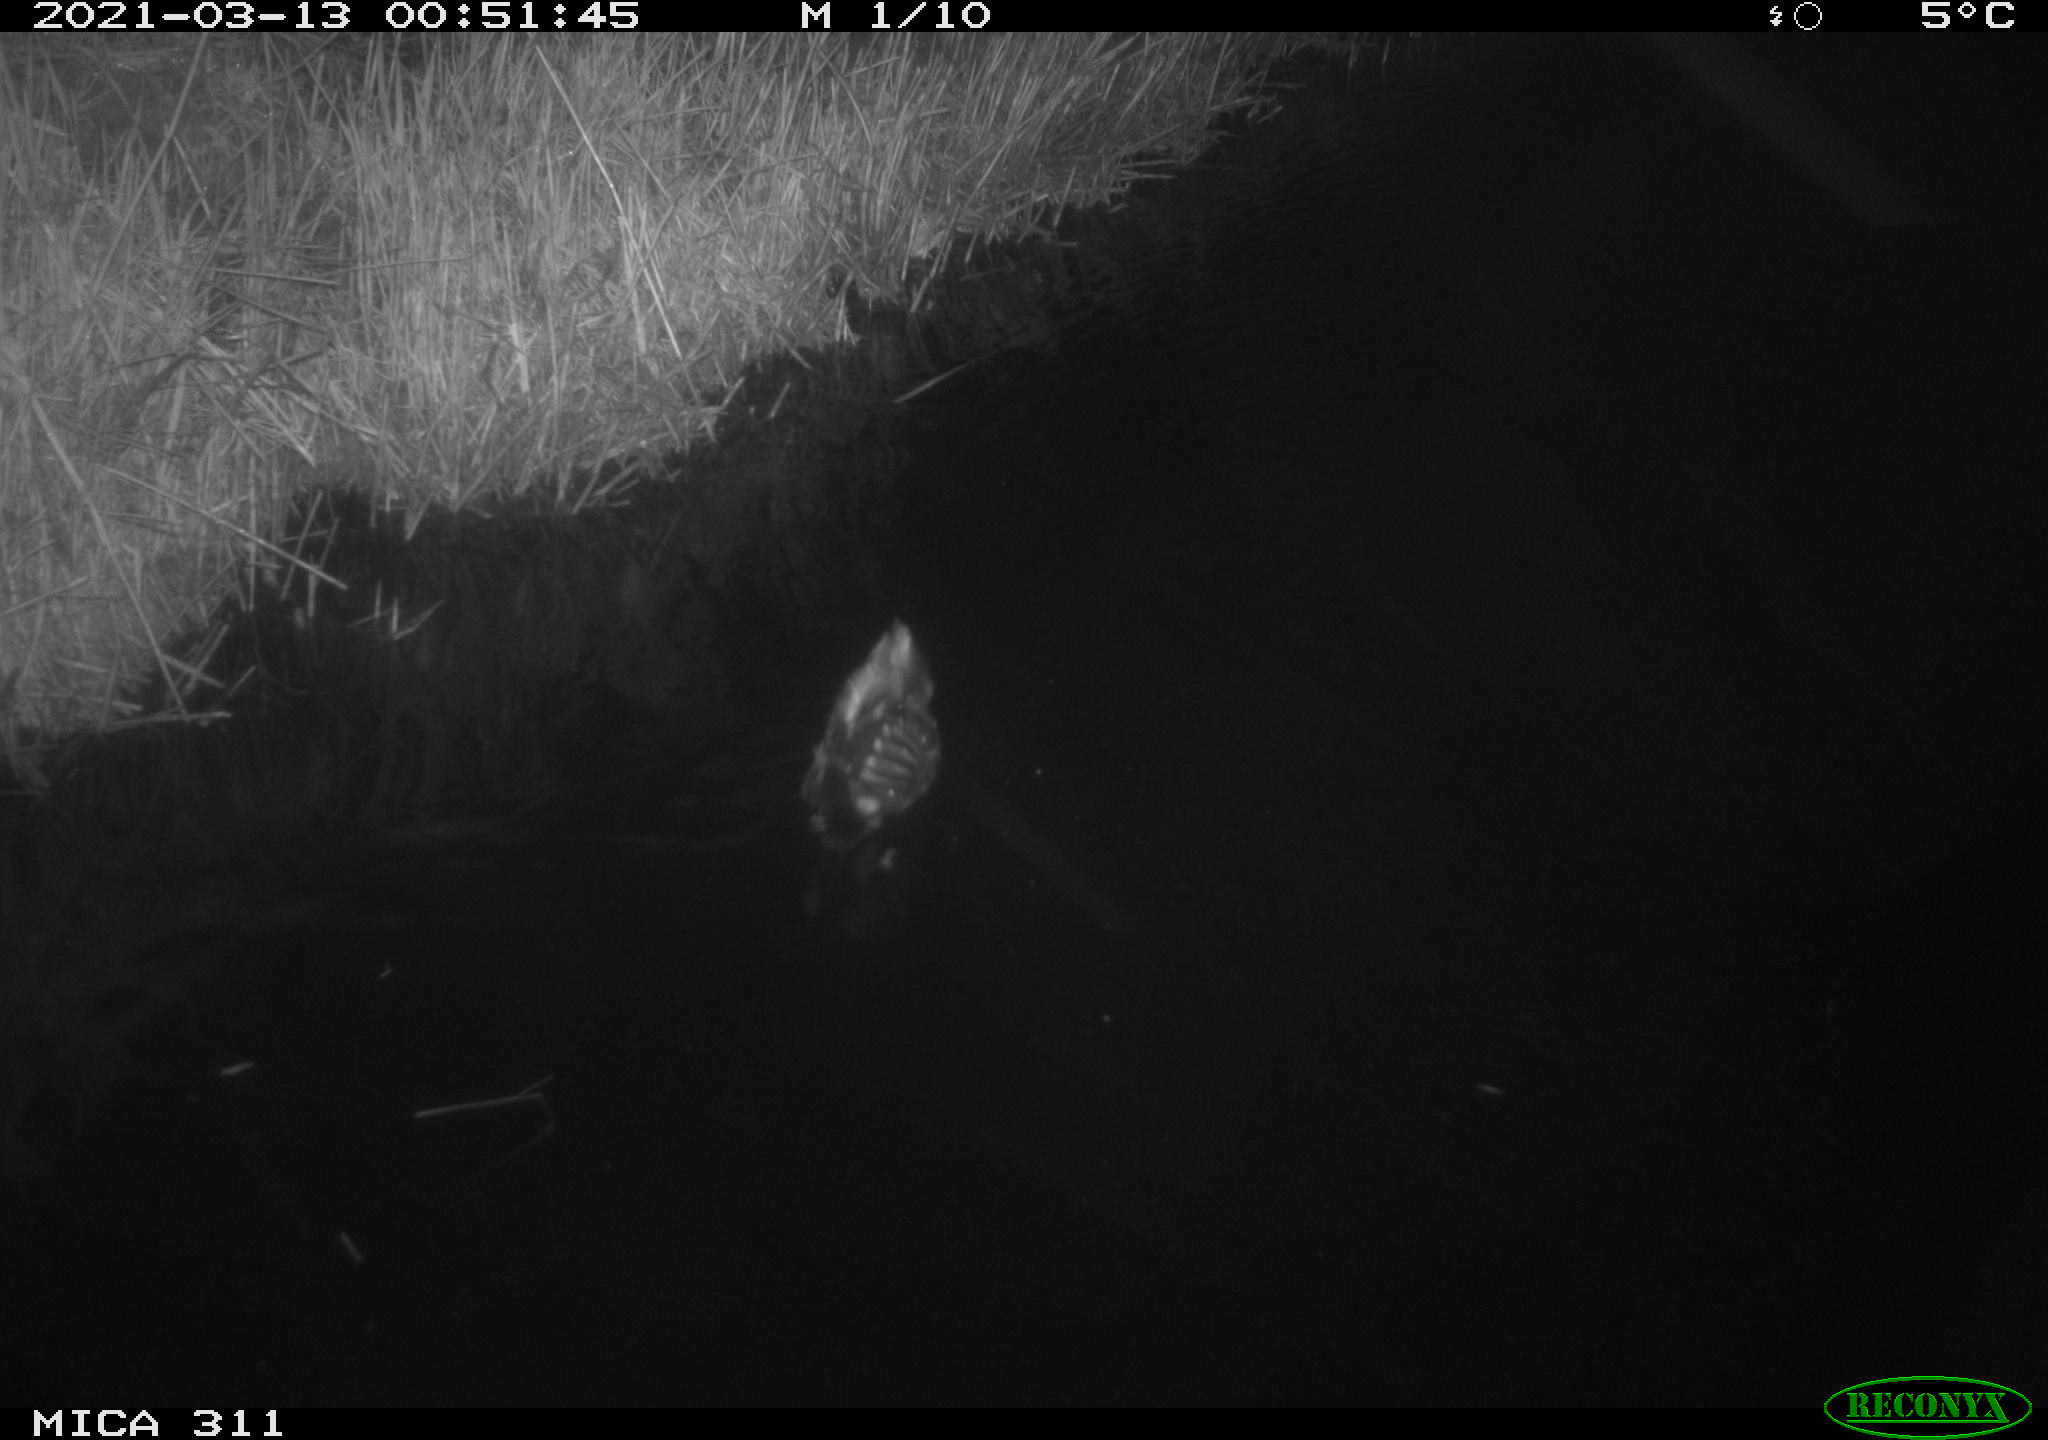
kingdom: Animalia
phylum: Chordata
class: Aves
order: Gruiformes
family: Rallidae
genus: Gallinula
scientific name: Gallinula chloropus
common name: Common moorhen
